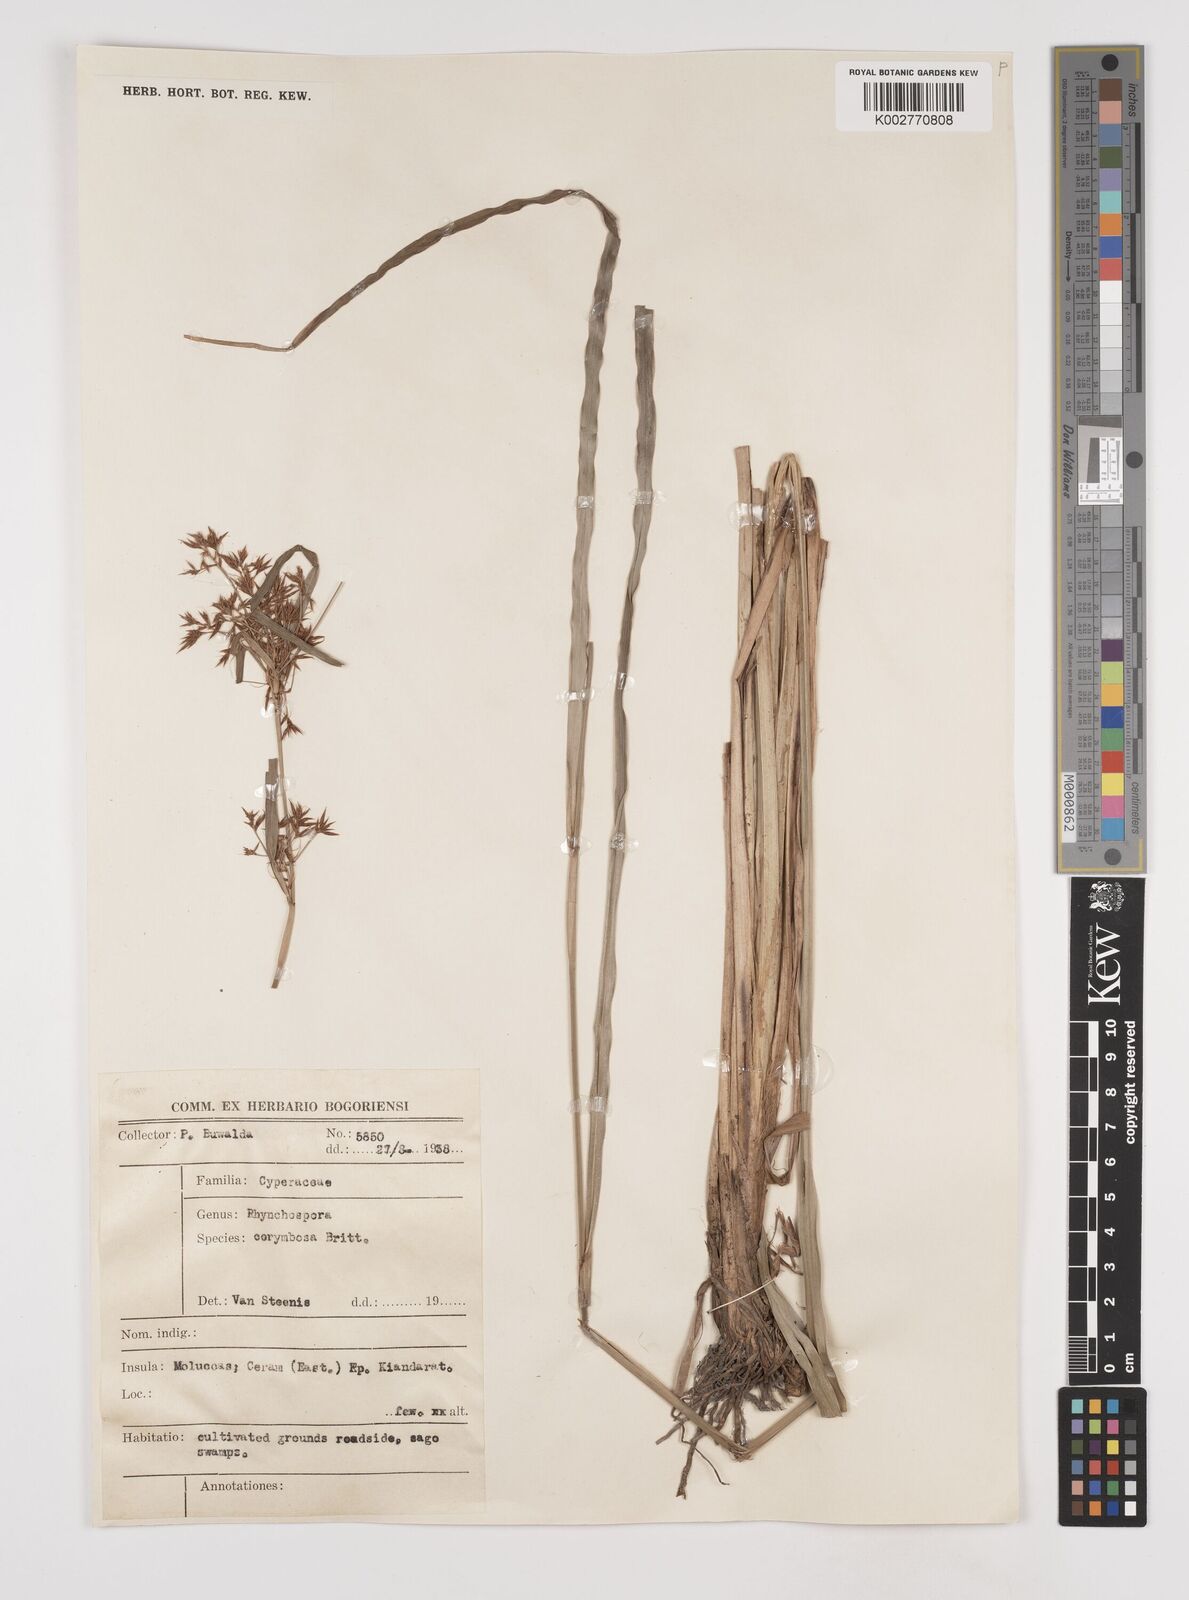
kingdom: Plantae
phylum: Tracheophyta
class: Liliopsida
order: Poales
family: Cyperaceae
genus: Rhynchospora
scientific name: Rhynchospora corymbosa
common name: Golden beak sedge
